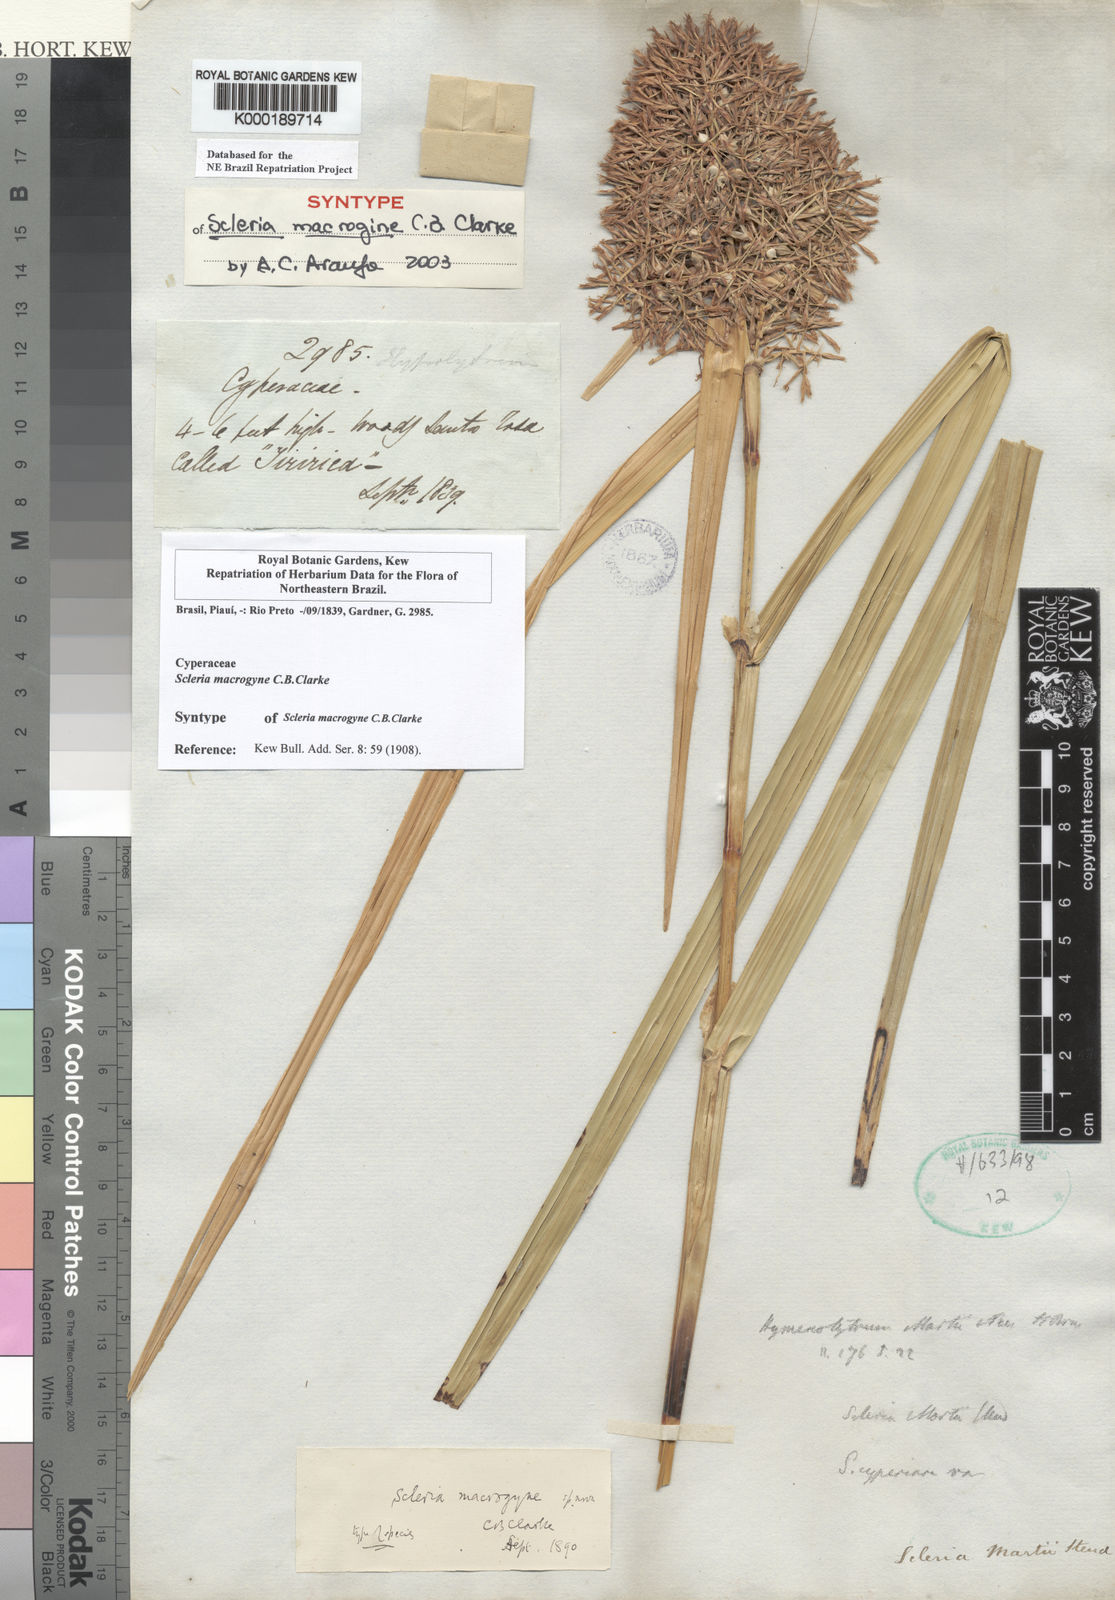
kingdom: Plantae
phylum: Tracheophyta
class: Liliopsida
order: Poales
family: Cyperaceae
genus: Scleria
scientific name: Scleria macrogyne
